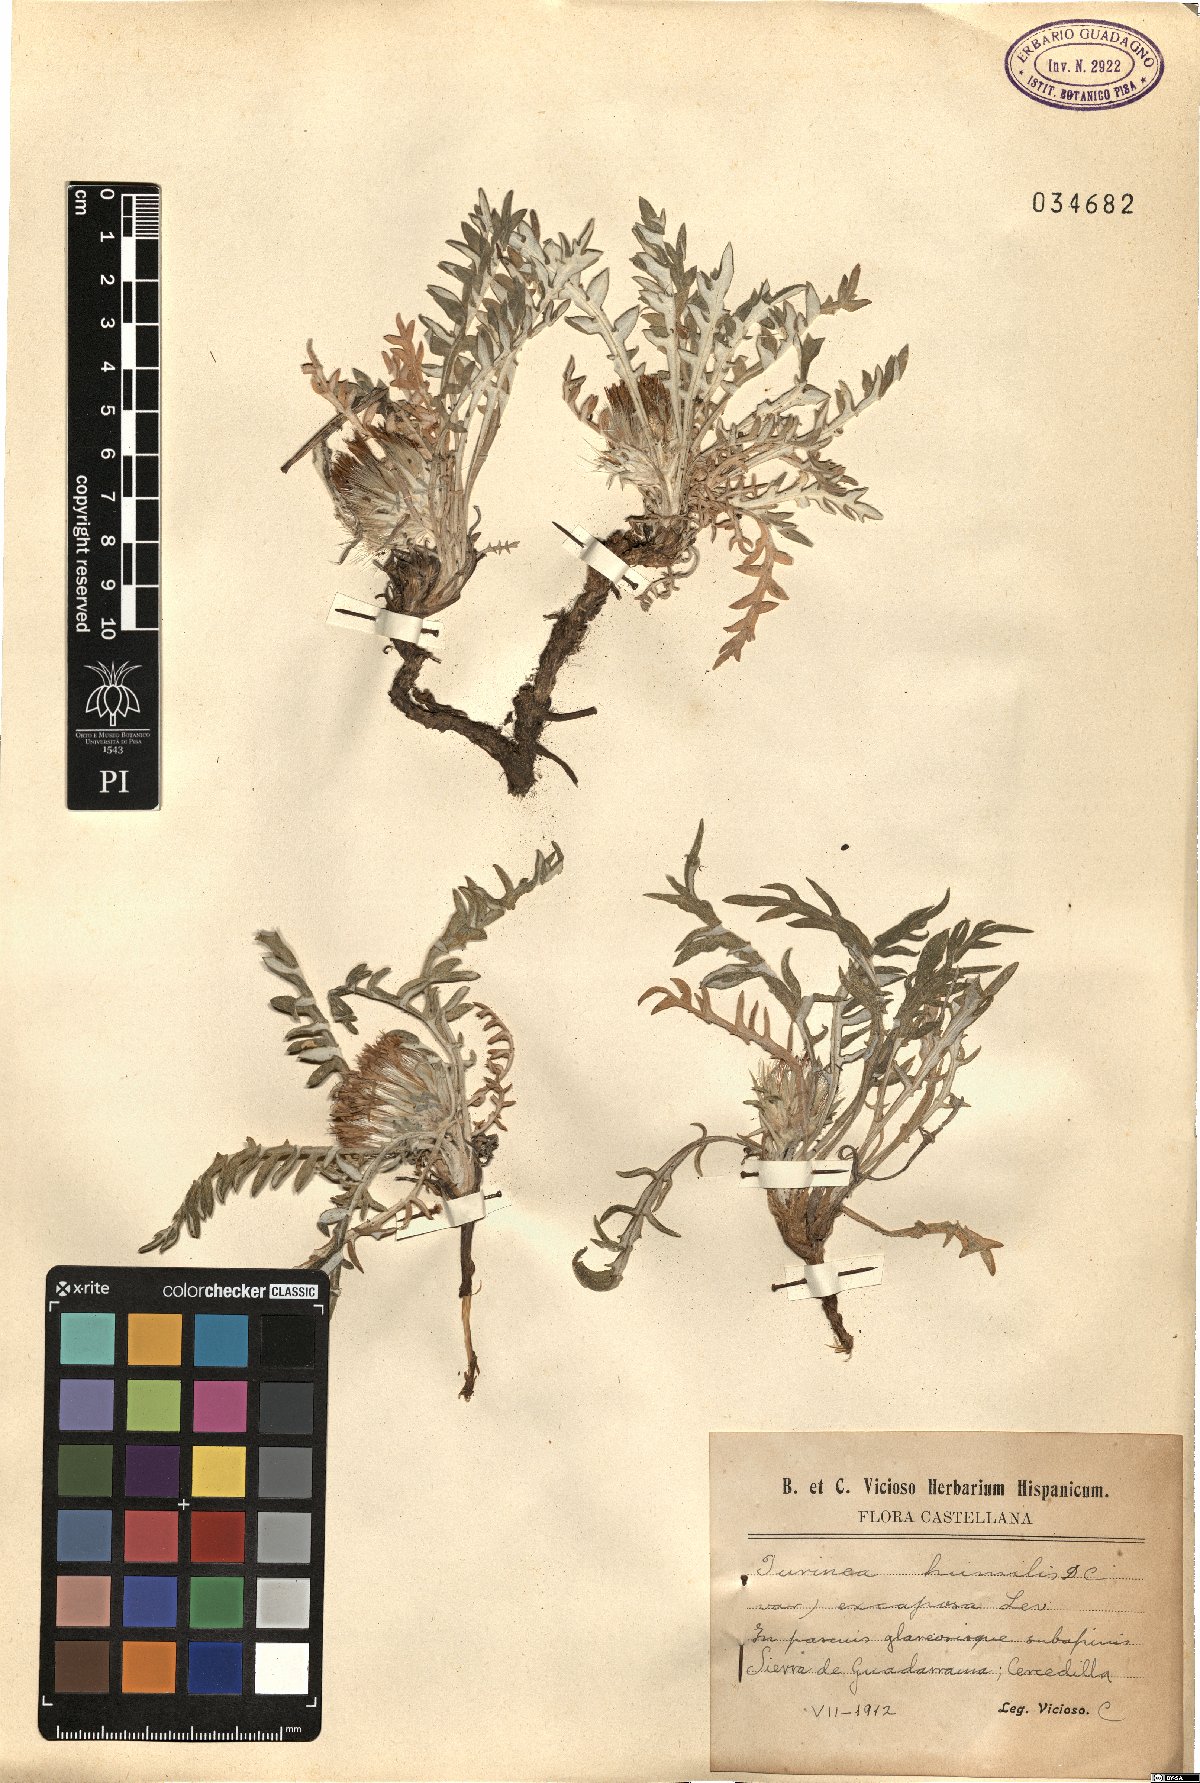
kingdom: Plantae
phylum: Tracheophyta
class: Magnoliopsida
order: Asterales
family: Asteraceae
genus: Jurinea
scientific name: Jurinea humilis
